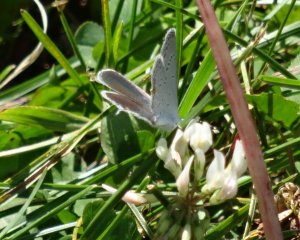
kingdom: Animalia
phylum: Arthropoda
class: Insecta
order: Lepidoptera
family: Lycaenidae
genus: Elkalyce
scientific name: Elkalyce comyntas
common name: Eastern Tailed-Blue
